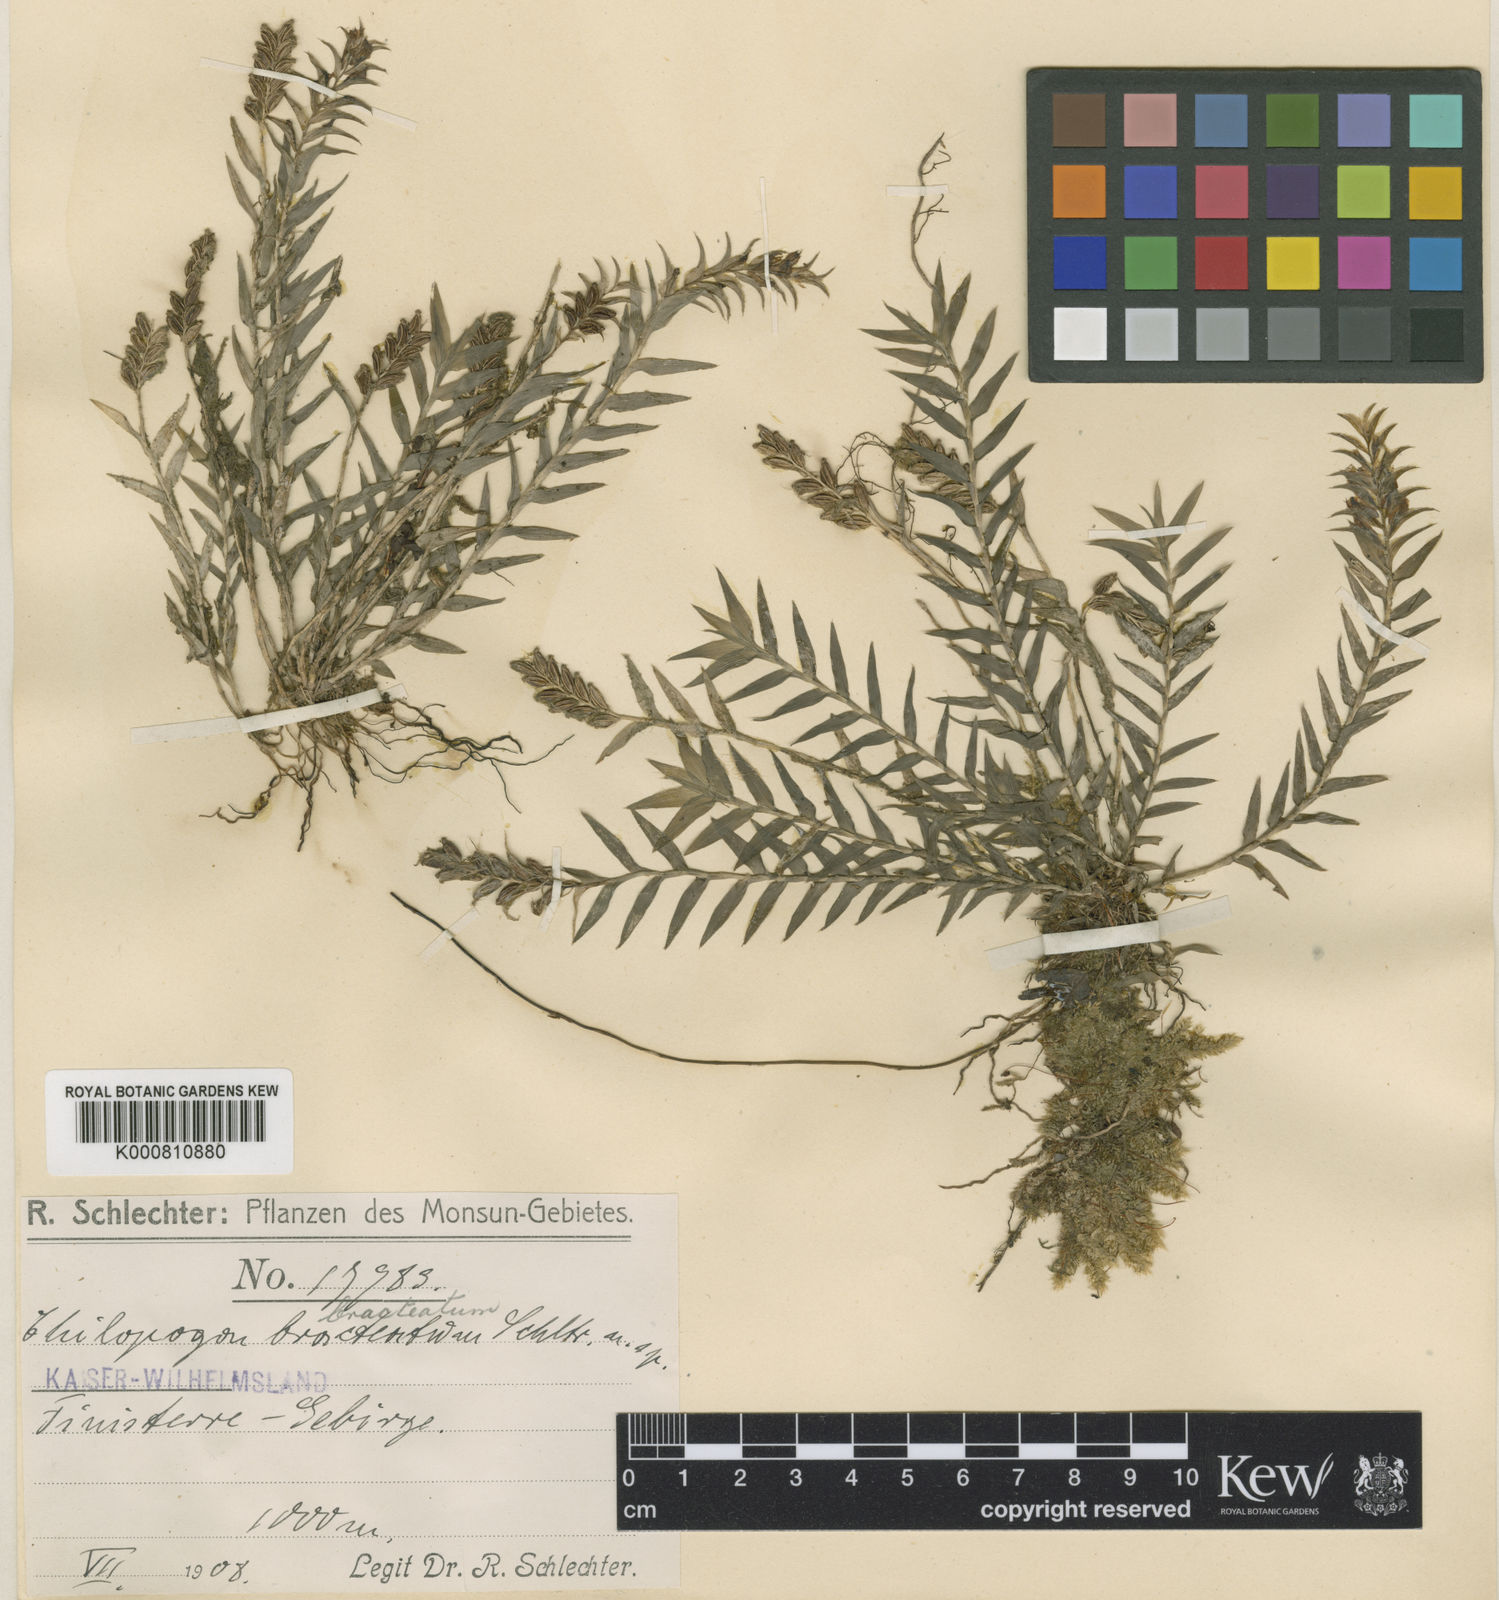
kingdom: Plantae
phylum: Tracheophyta
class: Liliopsida
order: Asparagales
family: Orchidaceae
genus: Appendicula
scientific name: Appendicula bracteata
